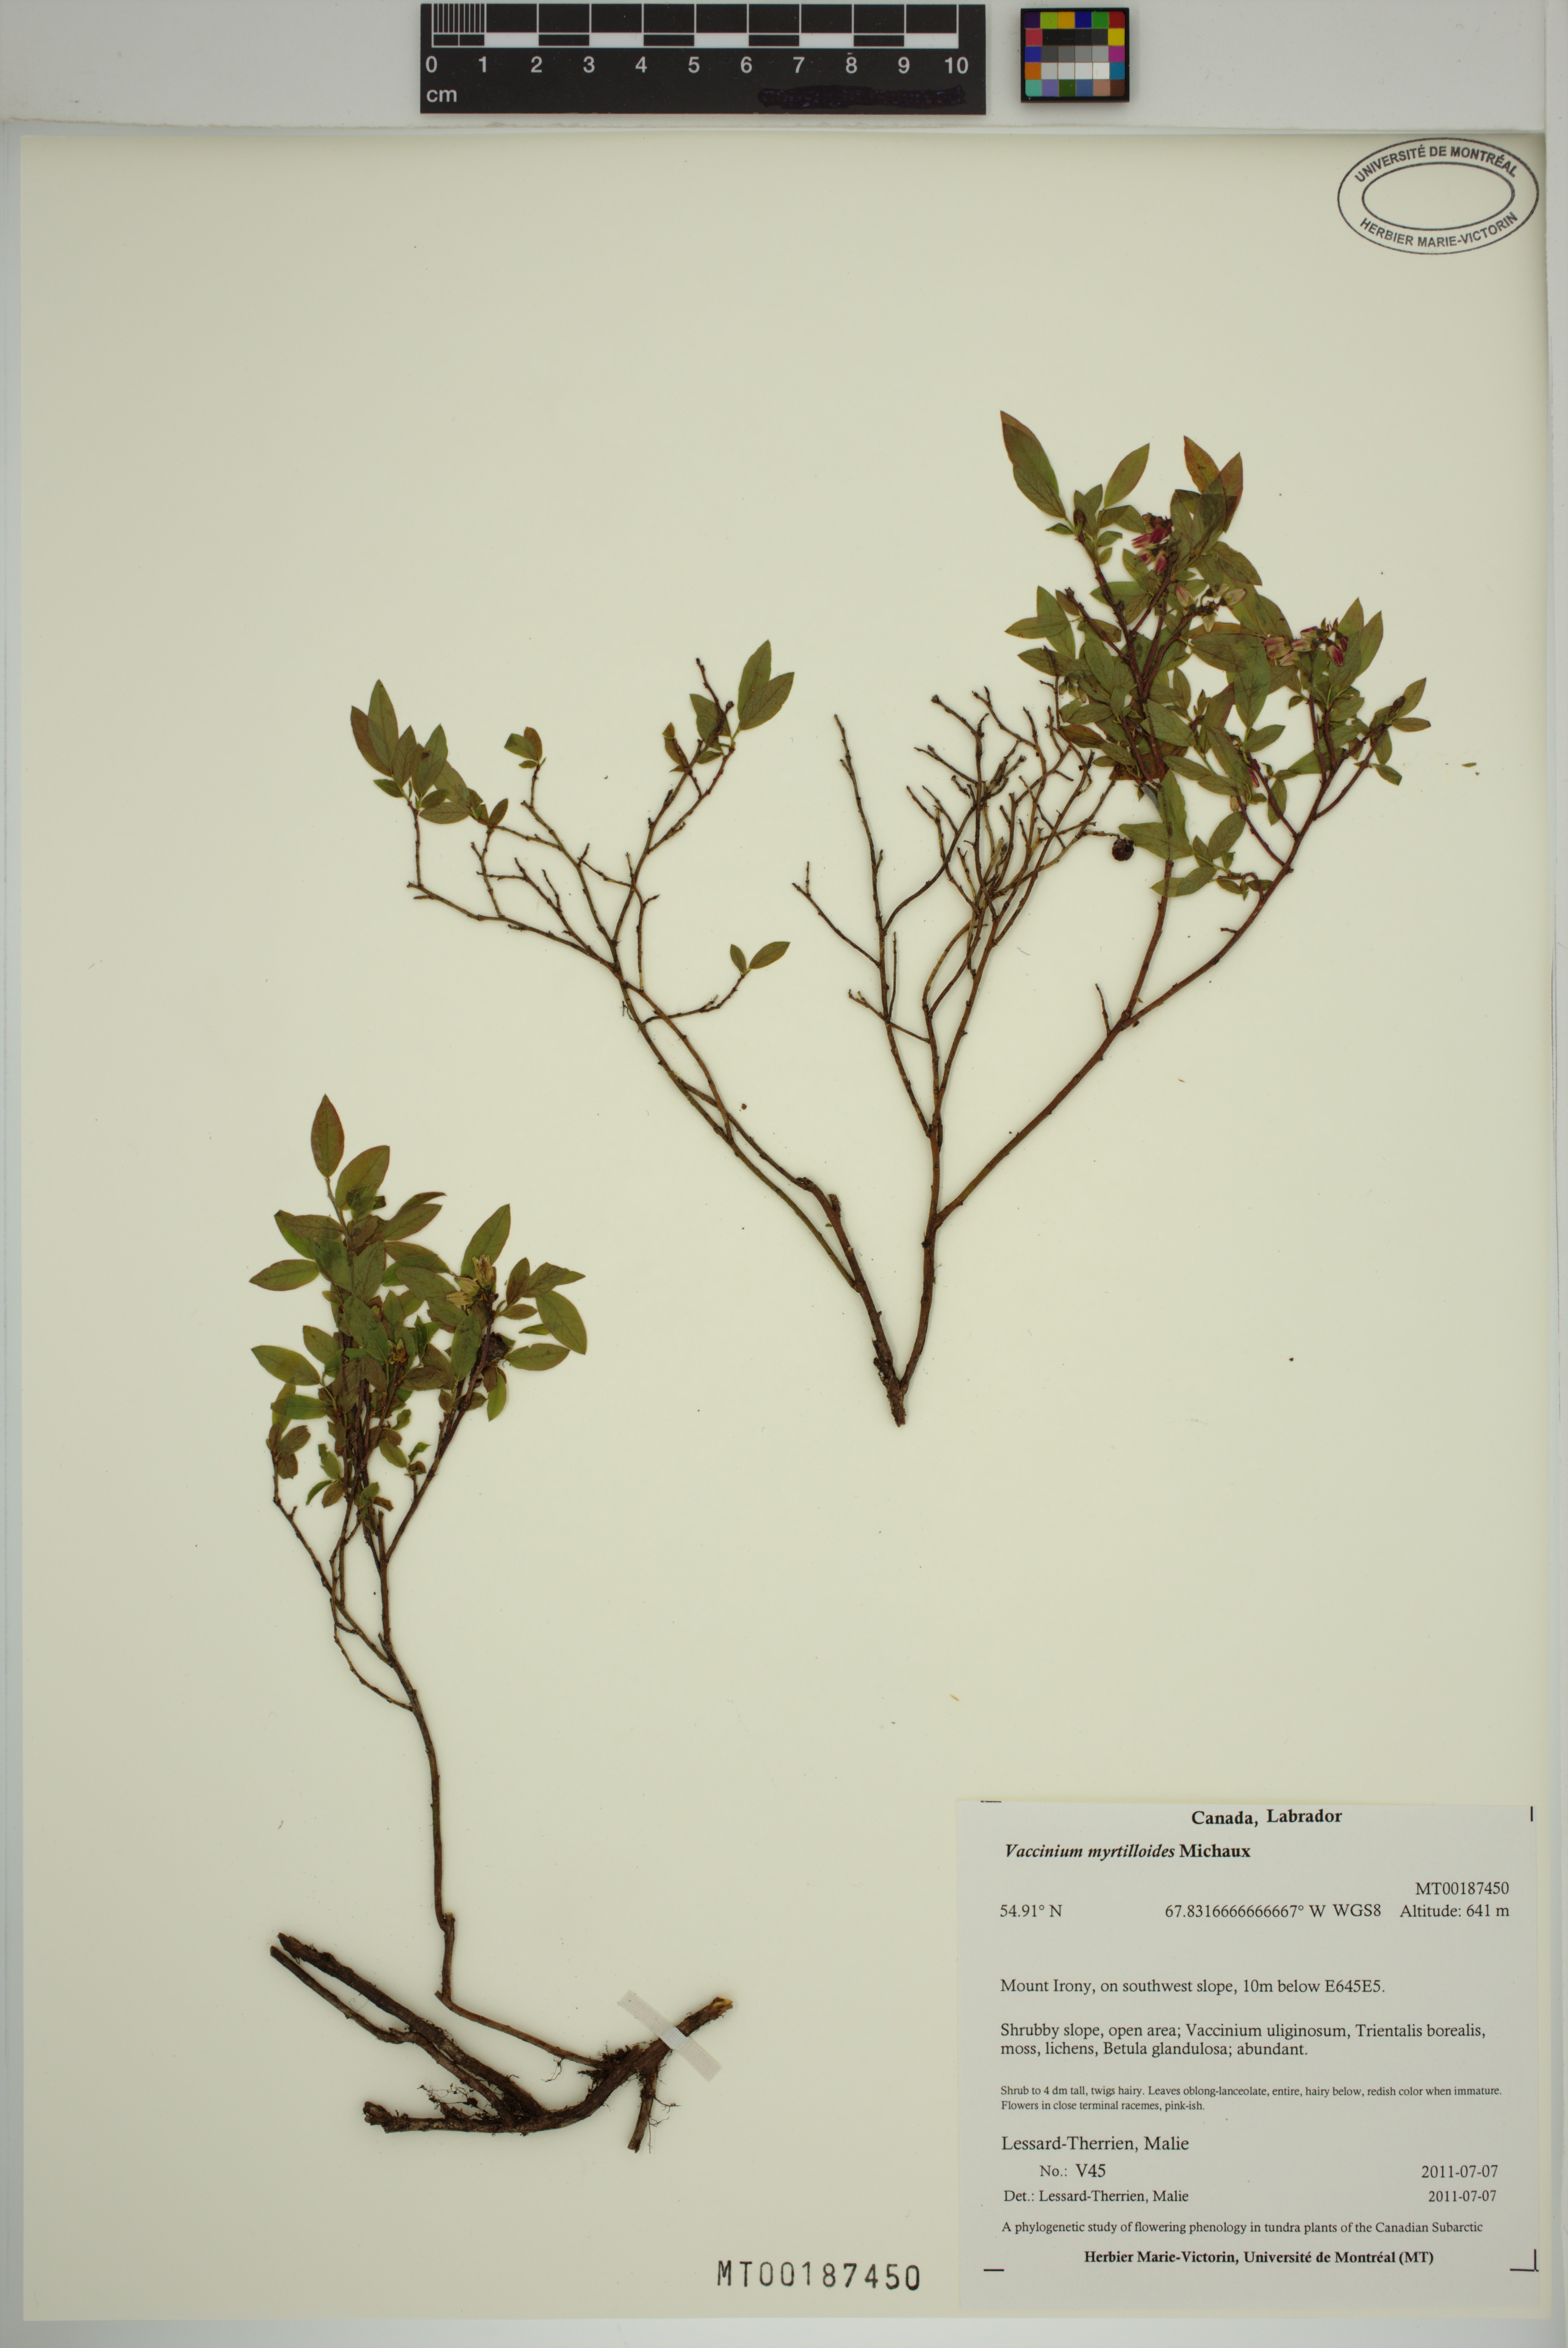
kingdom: Plantae
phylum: Tracheophyta
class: Magnoliopsida
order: Ericales
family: Ericaceae
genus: Vaccinium
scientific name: Vaccinium myrtilloides
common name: Canada blueberry
